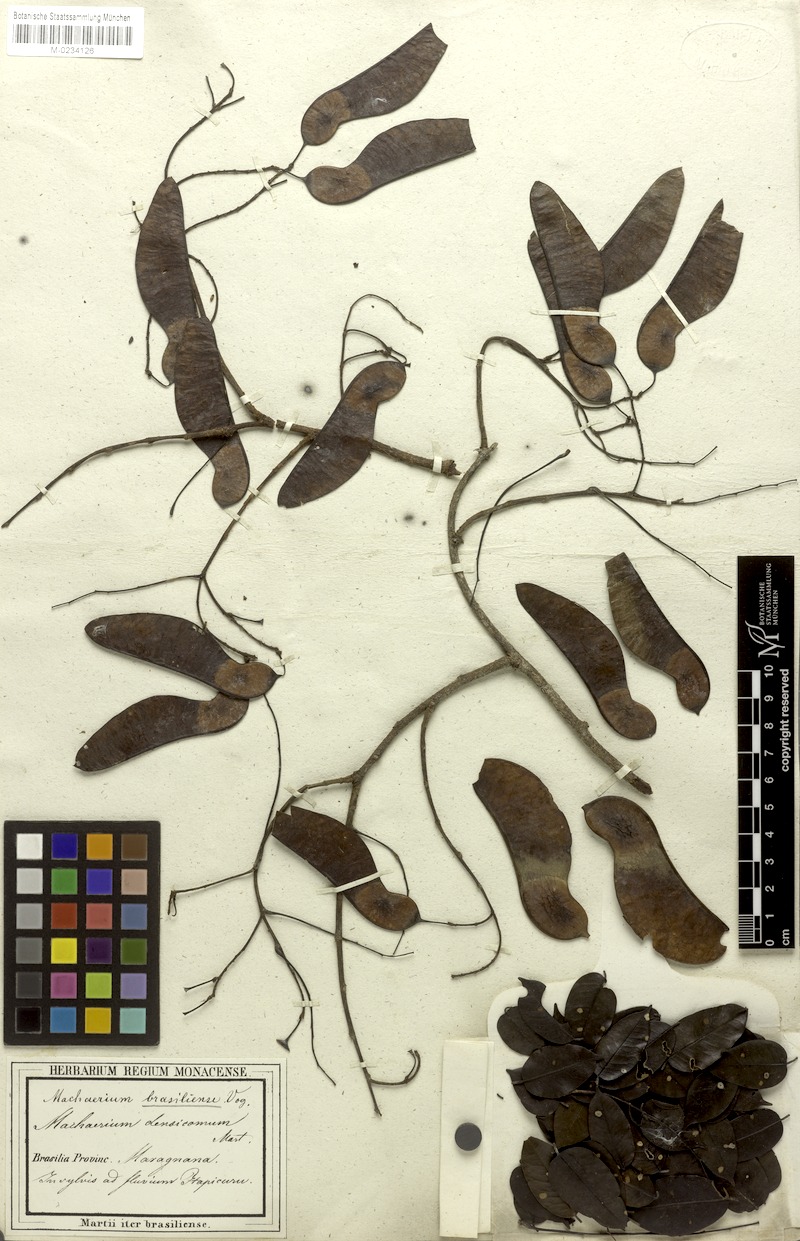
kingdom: Plantae
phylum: Tracheophyta
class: Magnoliopsida
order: Fabales
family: Fabaceae
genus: Machaerium
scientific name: Machaerium brasiliense
